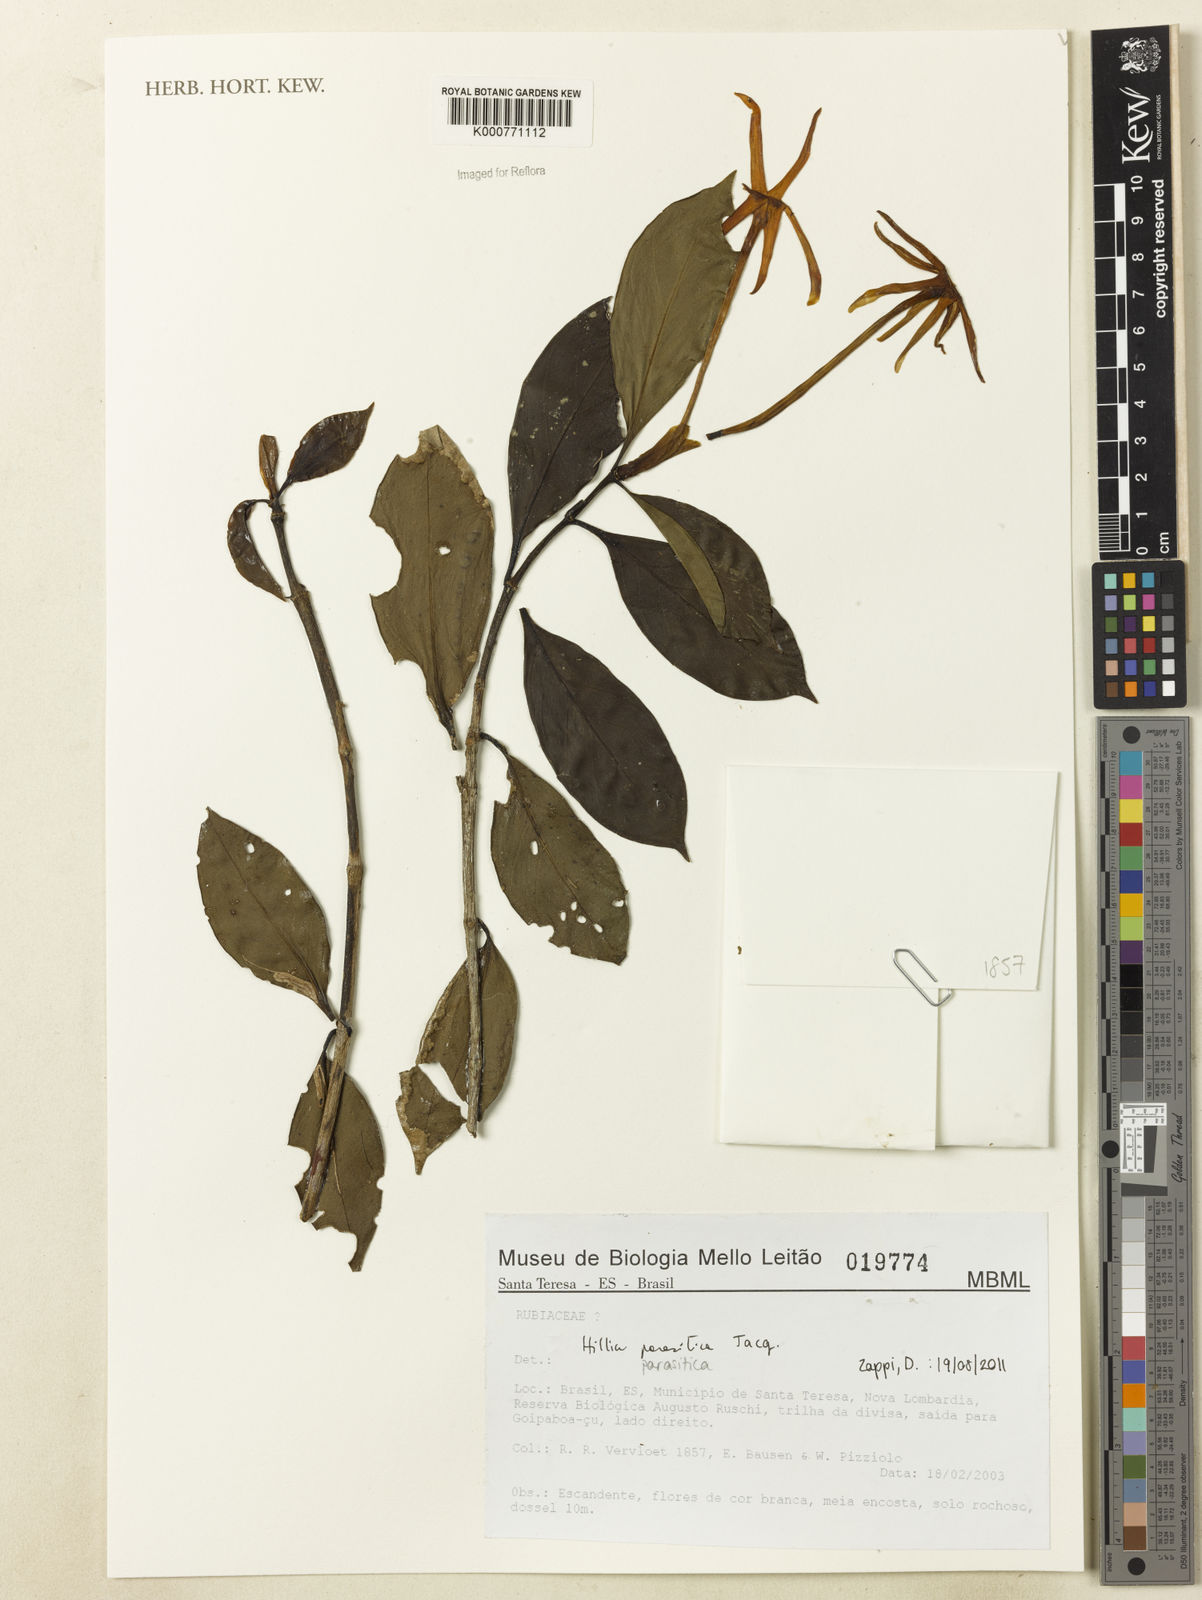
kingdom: Plantae
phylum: Tracheophyta
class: Magnoliopsida
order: Gentianales
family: Rubiaceae
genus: Hillia
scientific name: Hillia
